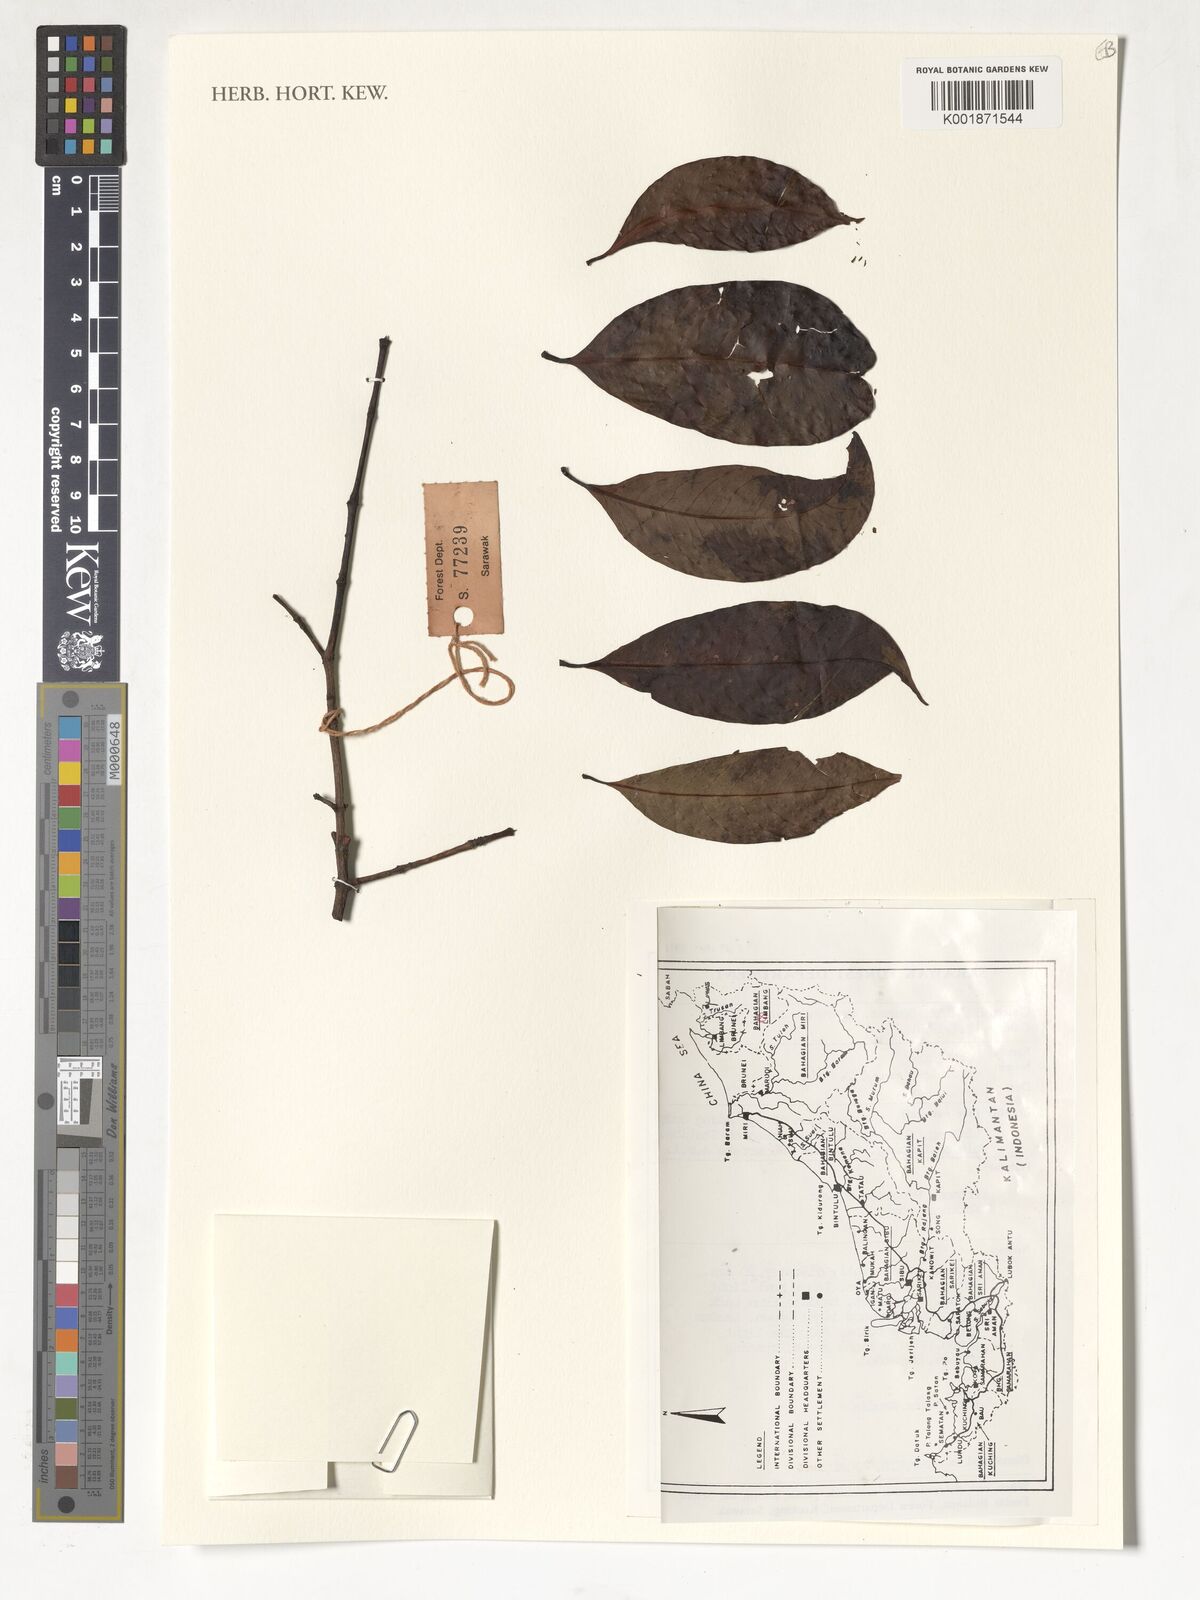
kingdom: Plantae
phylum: Tracheophyta
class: Magnoliopsida
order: Malpighiales
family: Clusiaceae
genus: Garcinia
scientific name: Garcinia parvifolia
